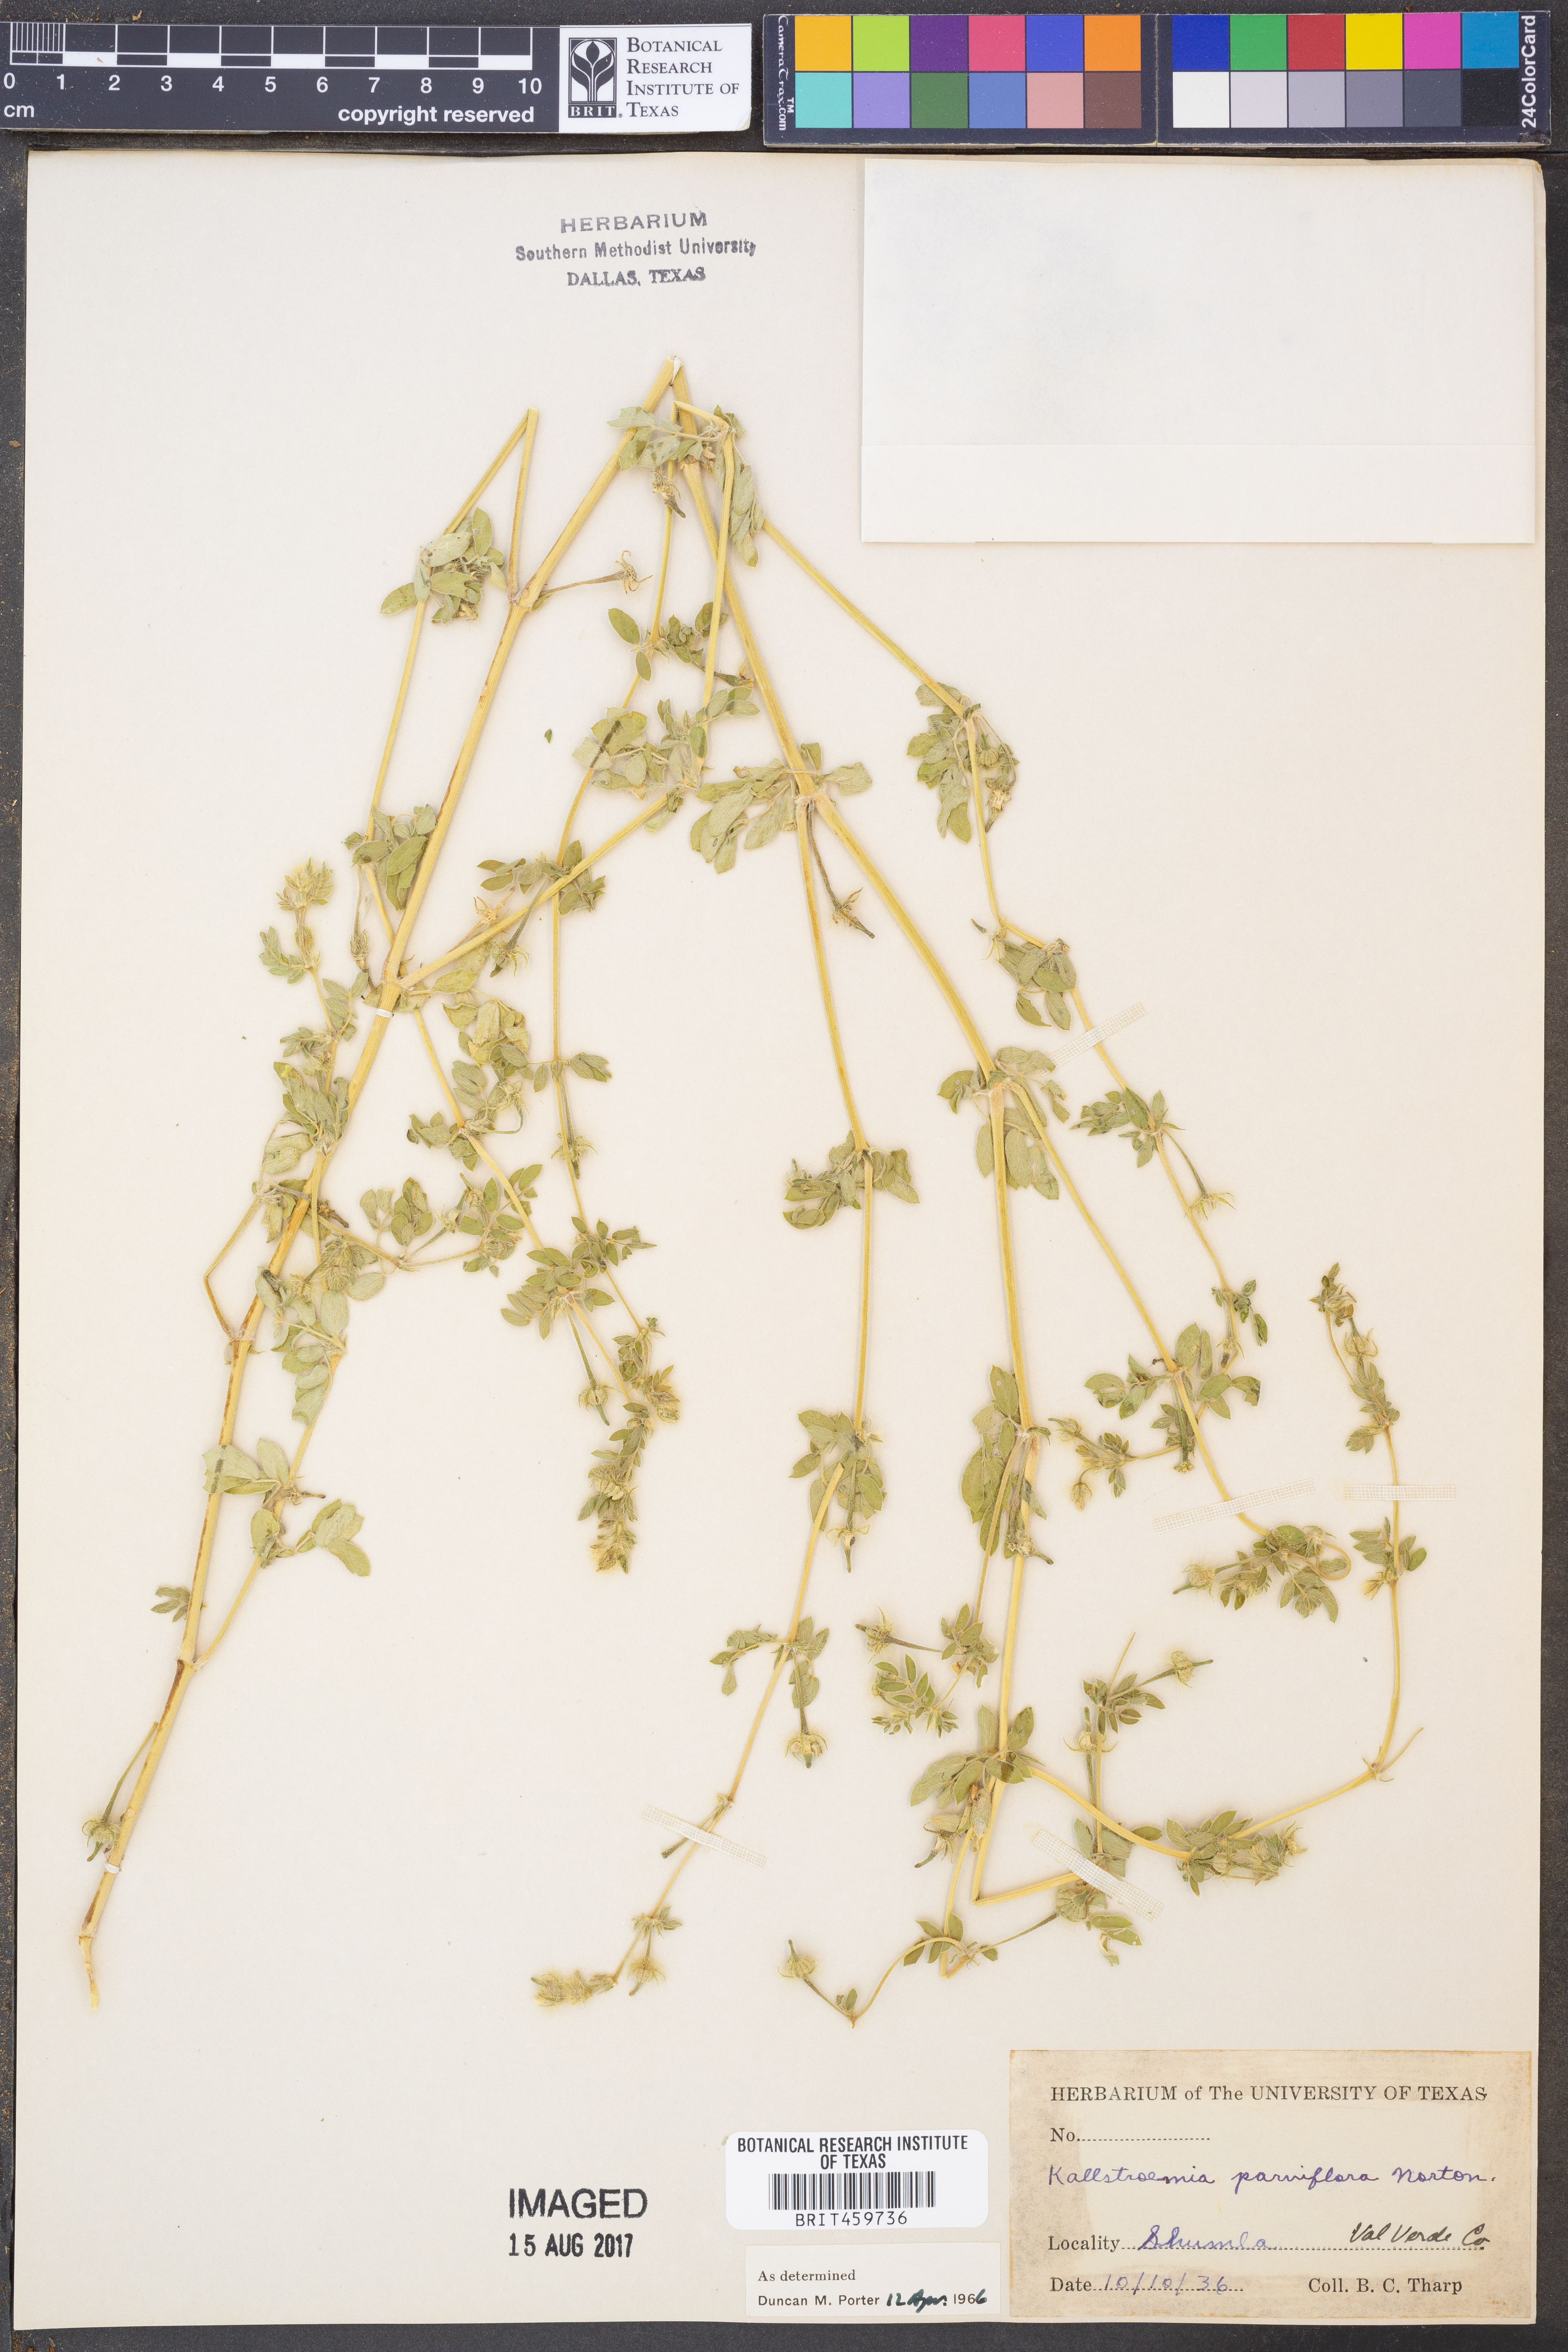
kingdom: Plantae
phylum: Tracheophyta
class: Magnoliopsida
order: Zygophyllales
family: Zygophyllaceae
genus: Kallstroemia
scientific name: Kallstroemia parviflora
